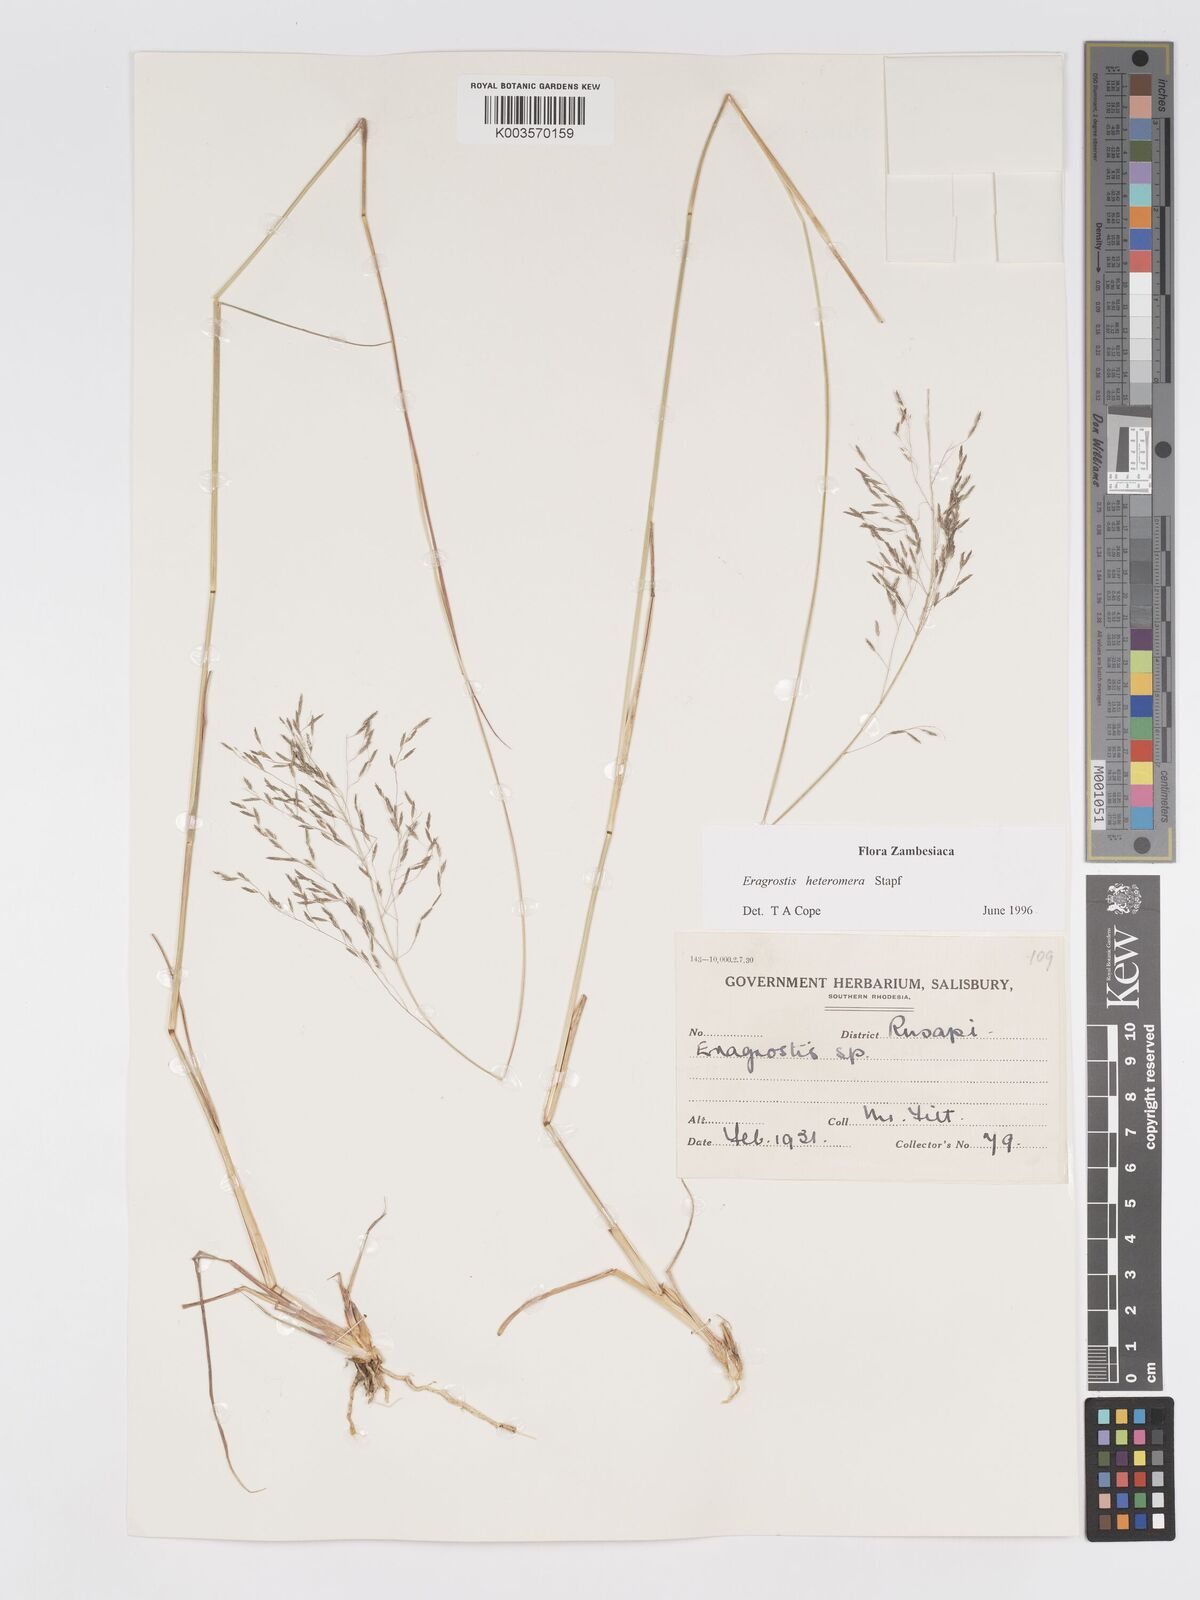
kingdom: Plantae
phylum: Tracheophyta
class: Liliopsida
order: Poales
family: Poaceae
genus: Eragrostis
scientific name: Eragrostis heteromera
